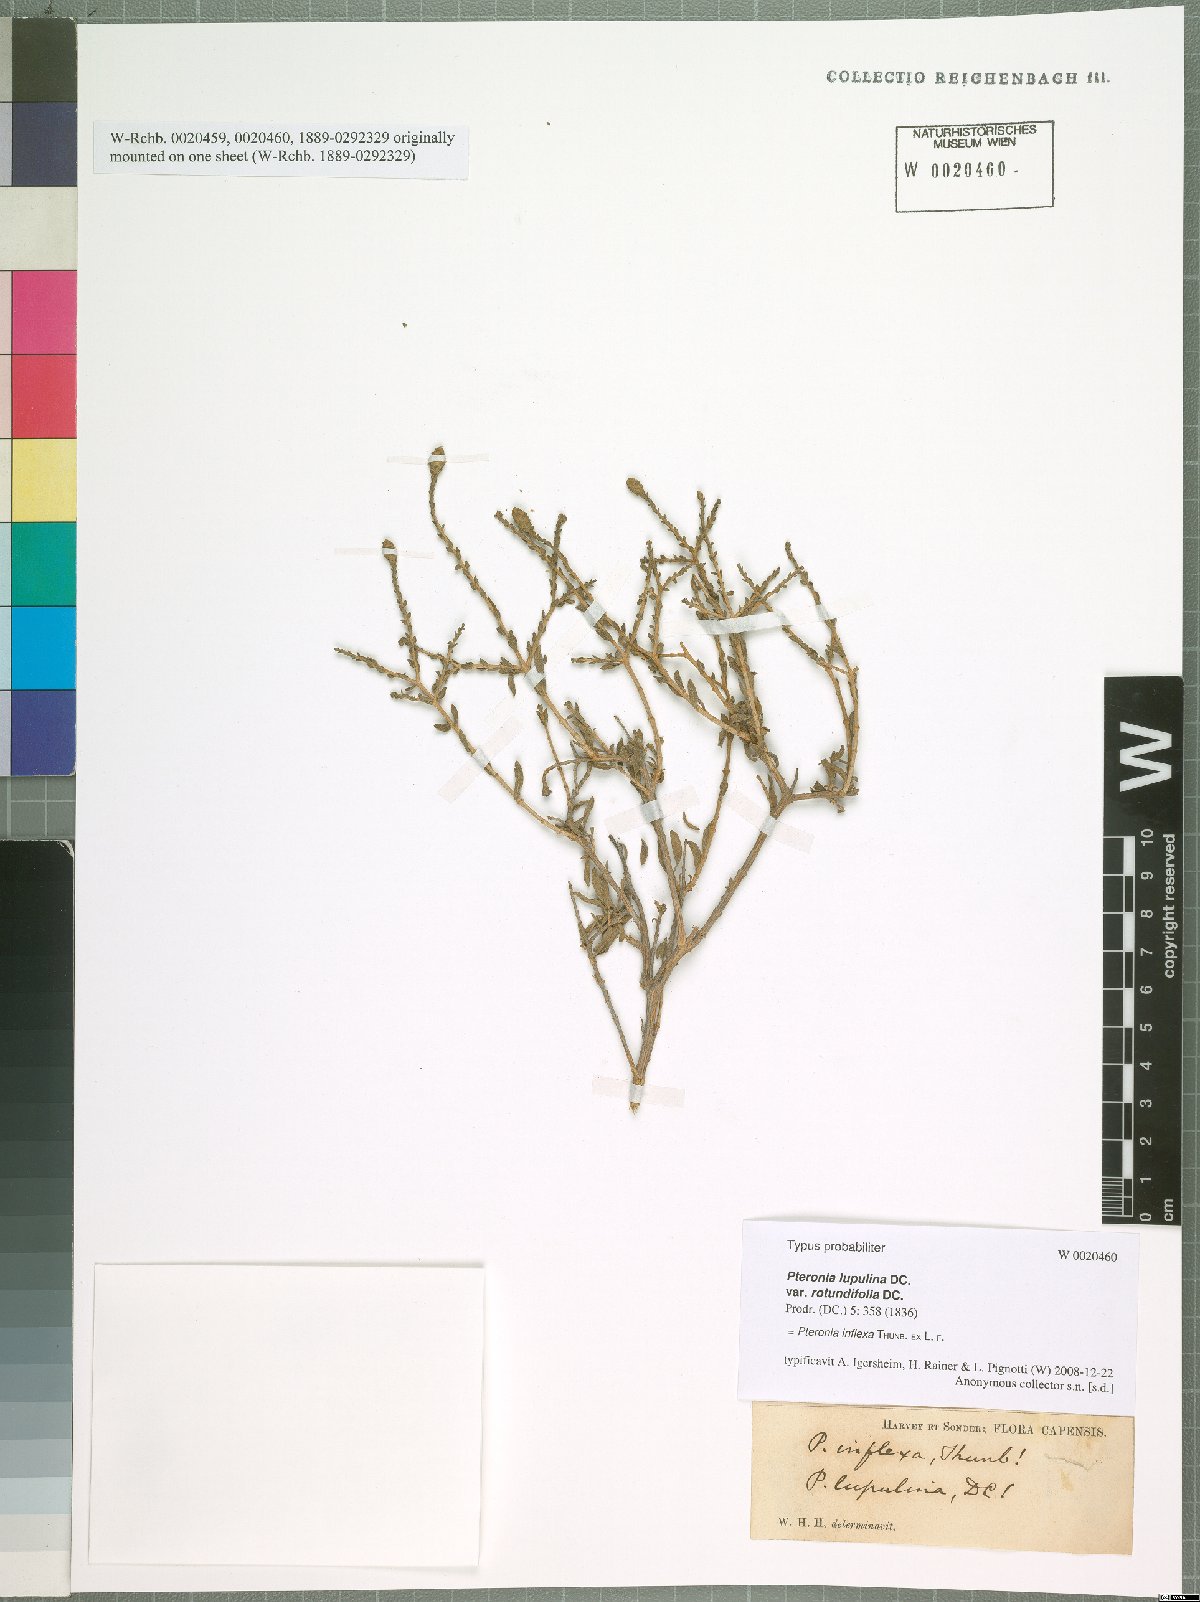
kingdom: Plantae
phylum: Tracheophyta
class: Magnoliopsida
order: Asterales
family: Asteraceae
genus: Pteronia
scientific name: Pteronia inflexa
